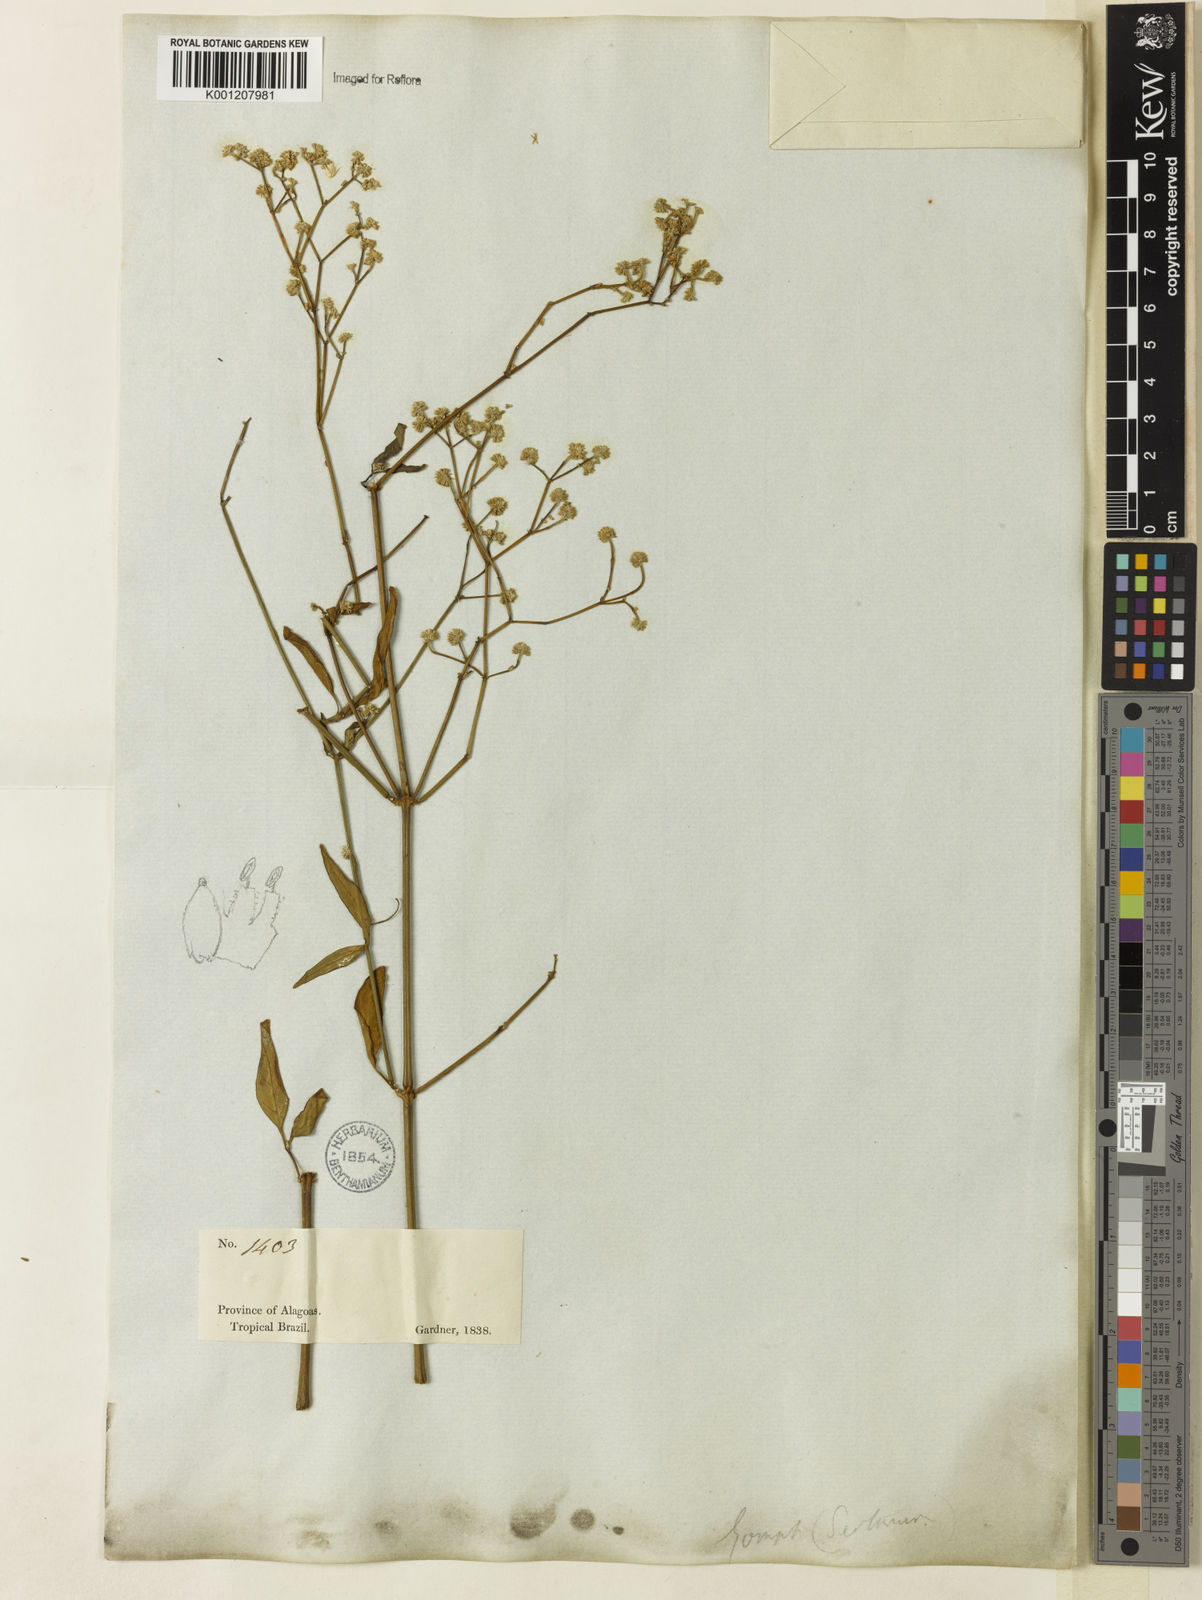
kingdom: Plantae
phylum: Tracheophyta
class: Magnoliopsida
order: Caryophyllales
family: Amaranthaceae
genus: Pfaffia
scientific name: Pfaffia
